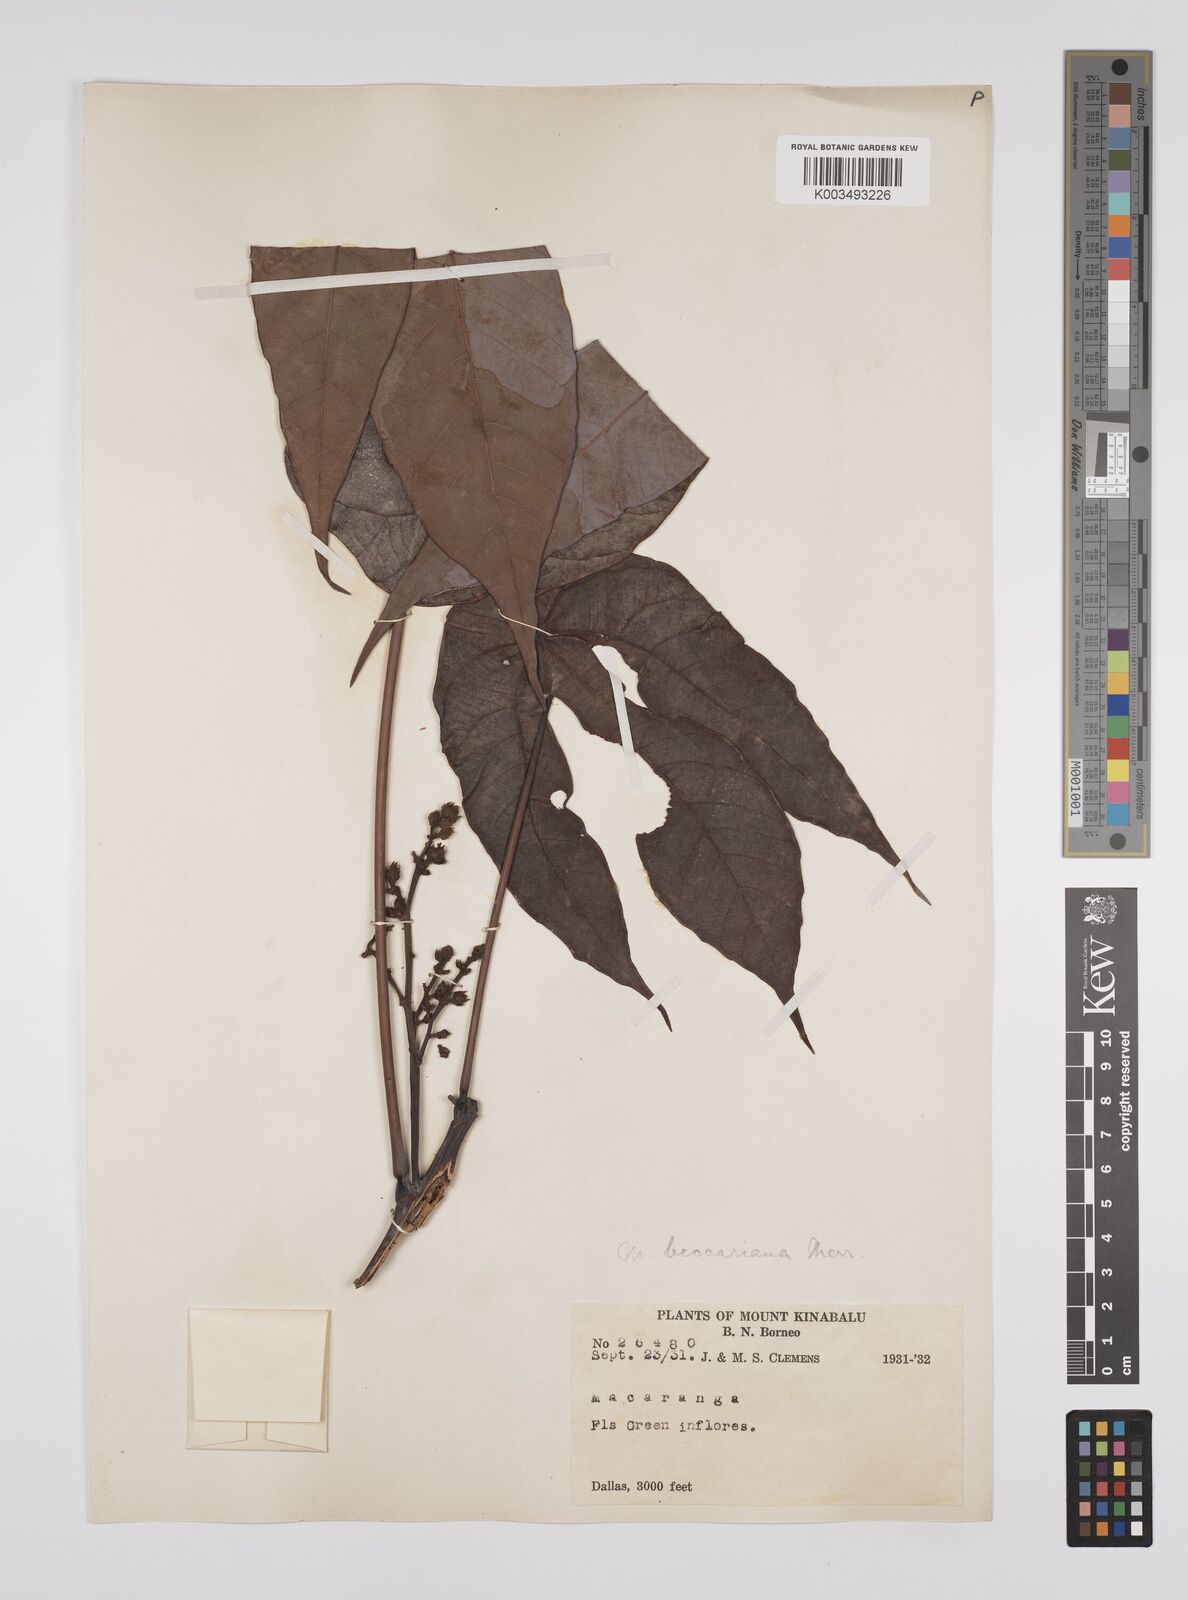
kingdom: Plantae
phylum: Tracheophyta
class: Magnoliopsida
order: Malpighiales
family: Euphorbiaceae
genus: Macaranga
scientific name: Macaranga beccariana
